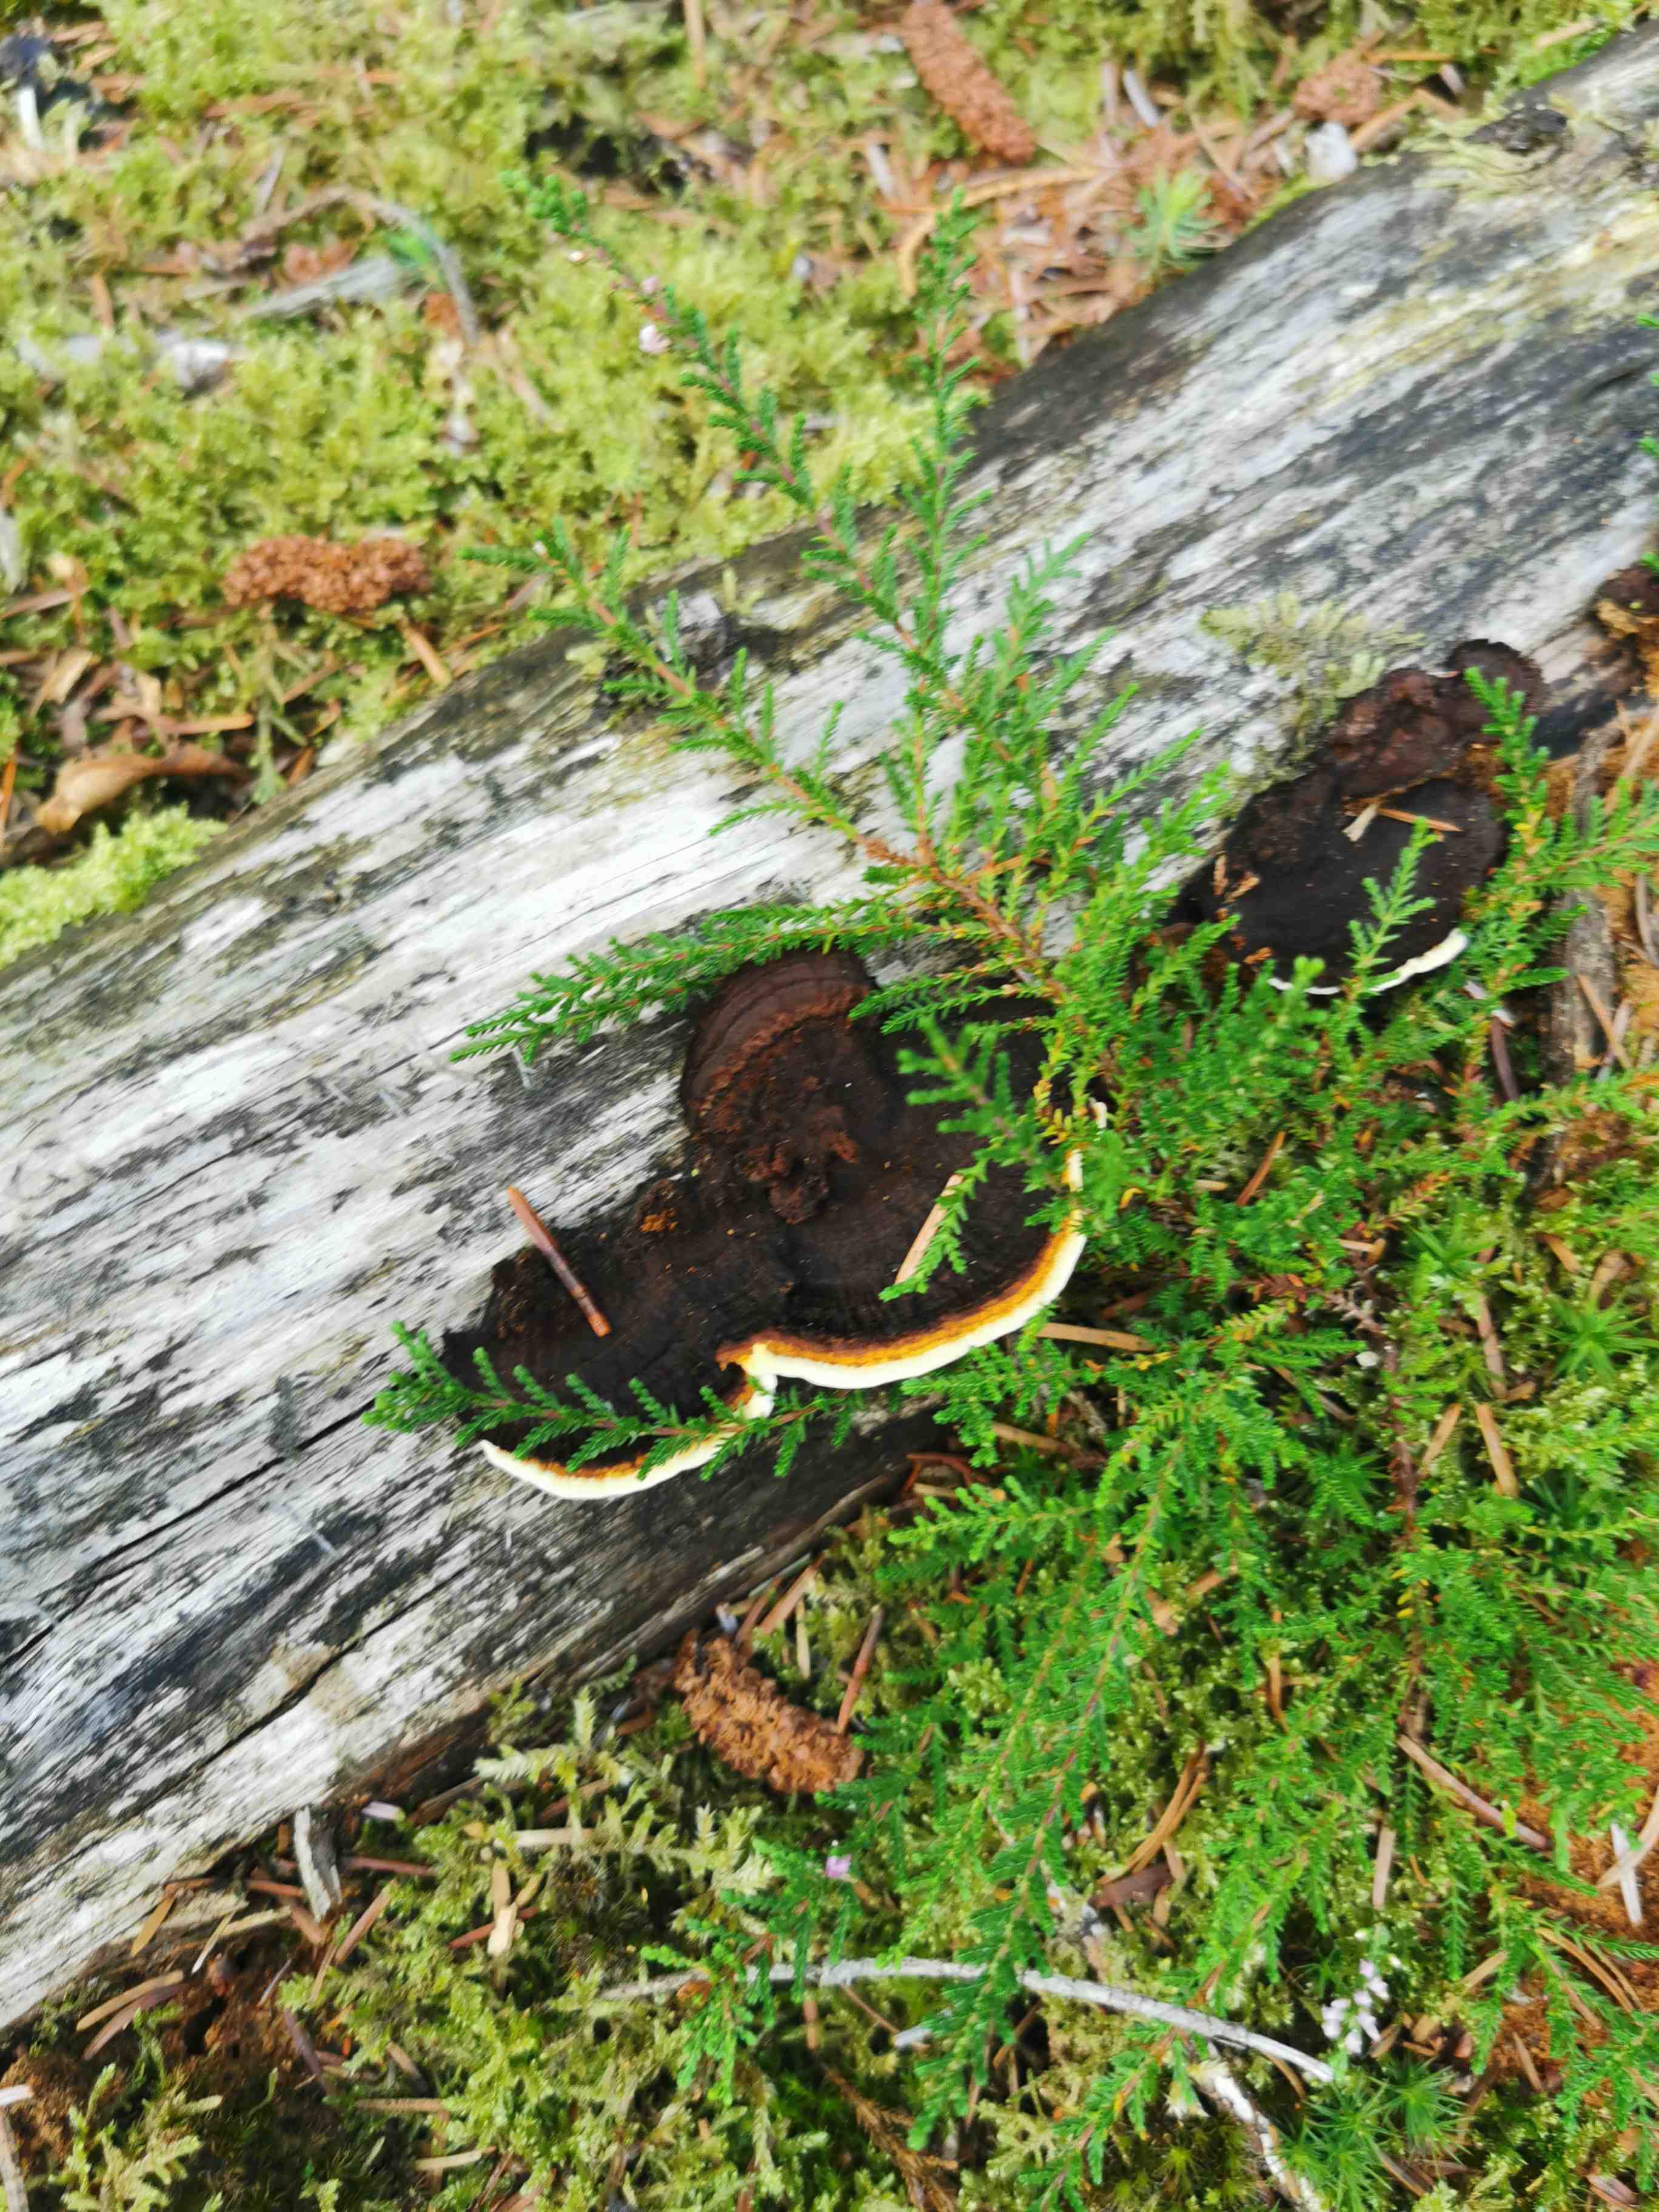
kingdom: Fungi
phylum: Basidiomycota
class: Agaricomycetes
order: Gloeophyllales
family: Gloeophyllaceae
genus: Gloeophyllum
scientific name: Gloeophyllum sepiarium
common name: fyrre-korkhat
